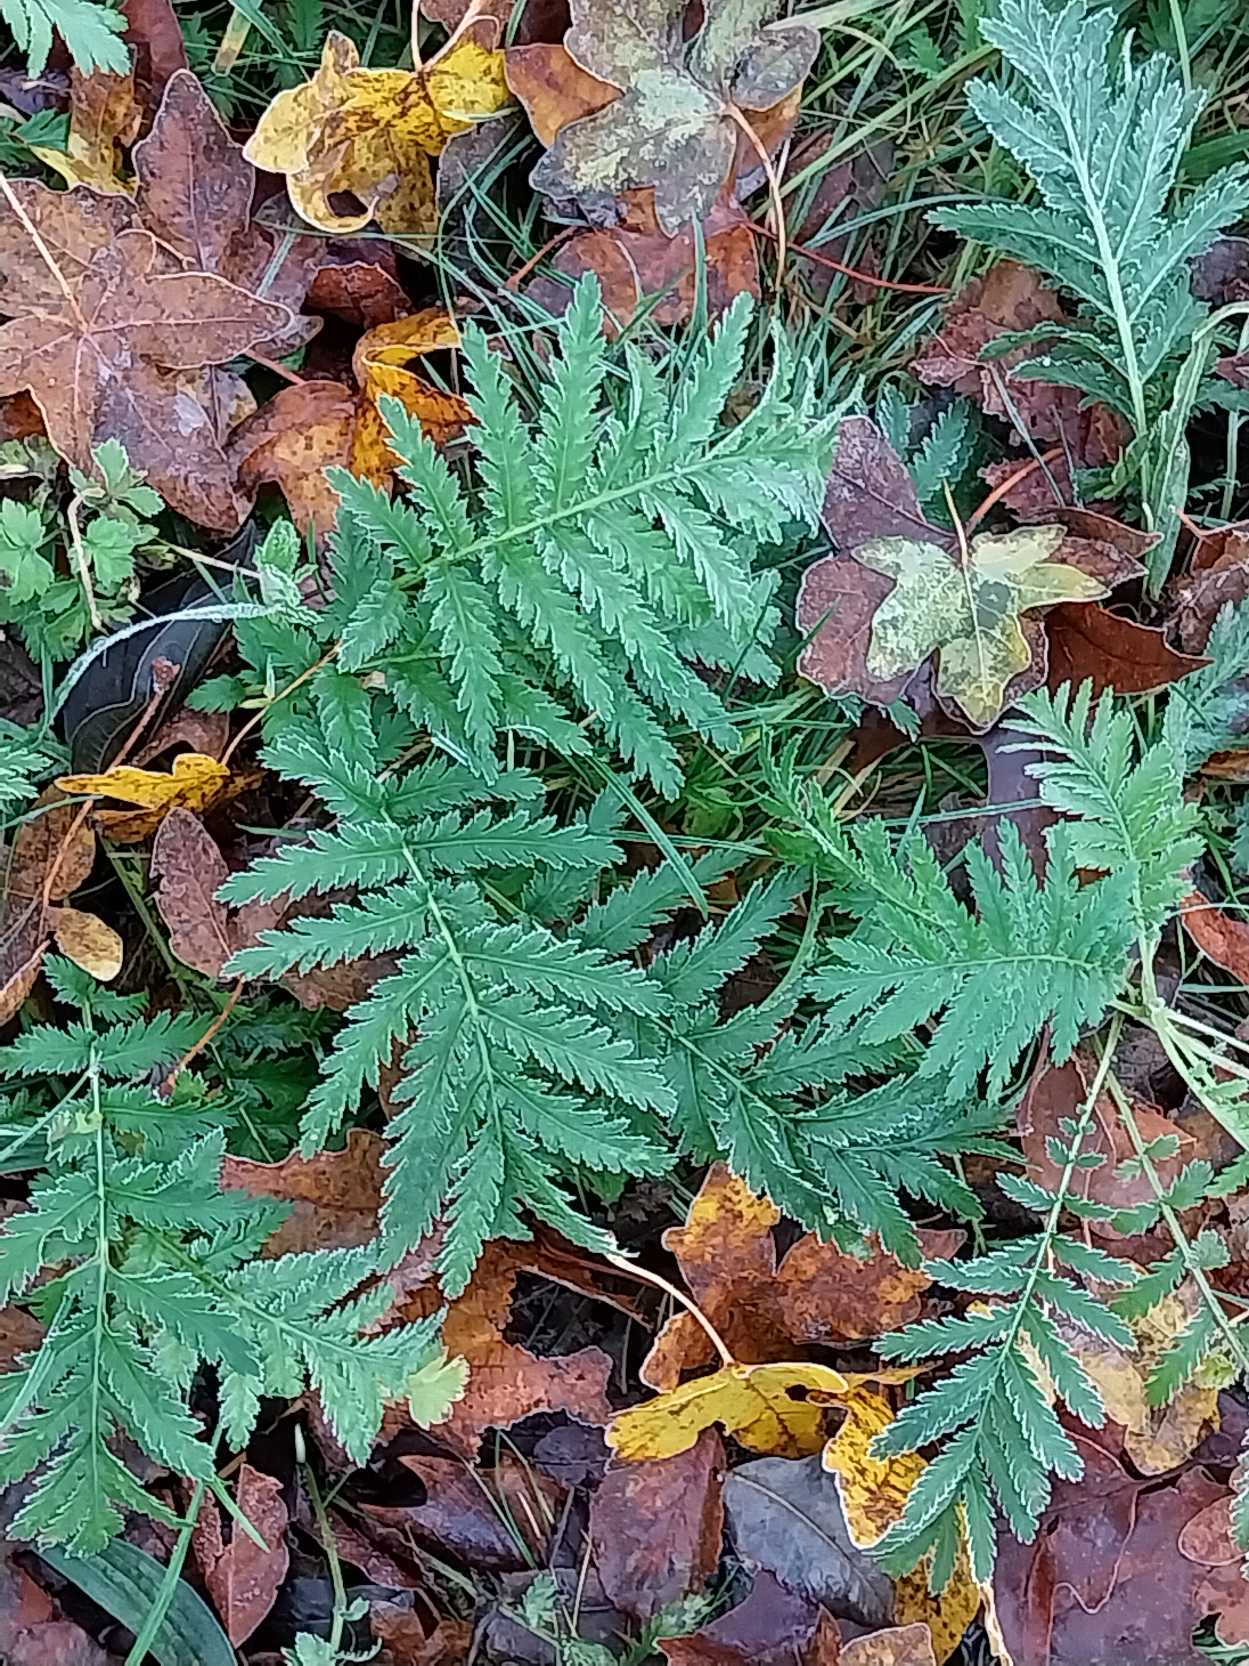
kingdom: Plantae
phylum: Tracheophyta
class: Magnoliopsida
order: Asterales
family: Asteraceae
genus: Tanacetum
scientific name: Tanacetum vulgare
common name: Rejnfan
